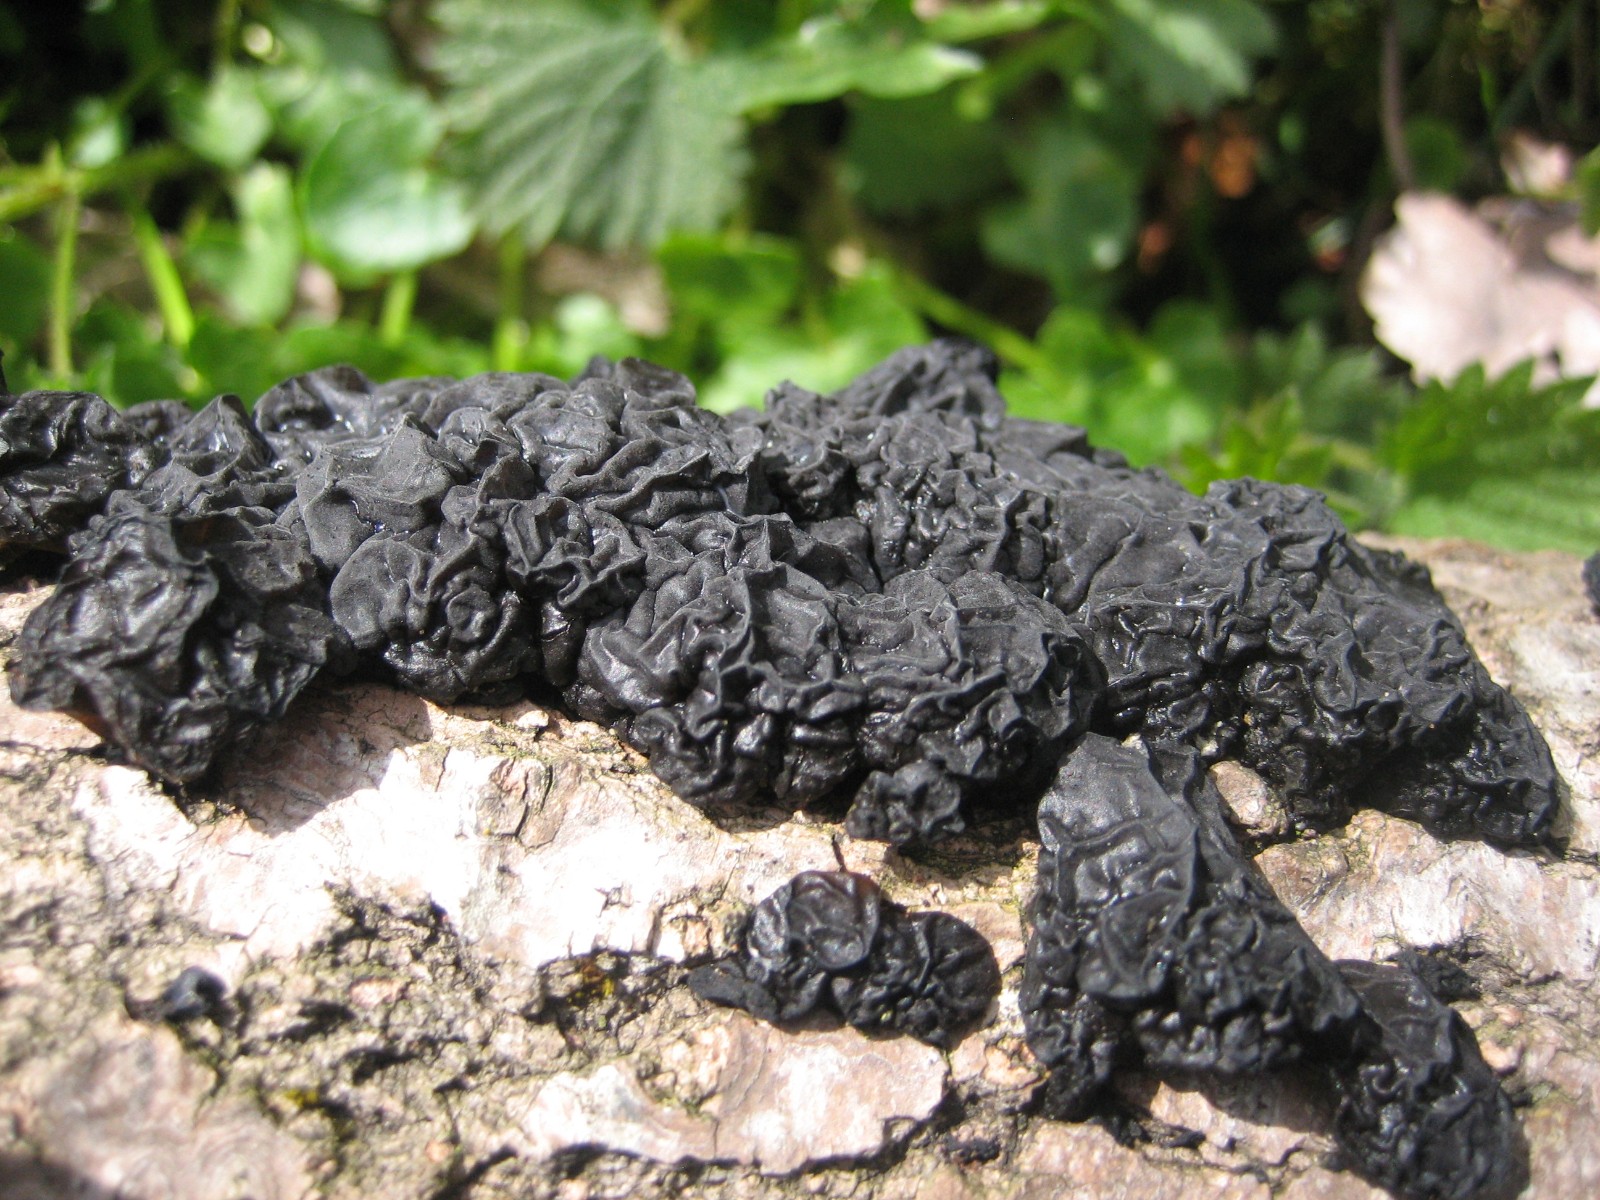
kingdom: Fungi
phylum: Basidiomycota
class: Agaricomycetes
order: Auriculariales
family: Auriculariaceae
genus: Exidia
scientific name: Exidia glandulosa
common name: ege-bævretop
